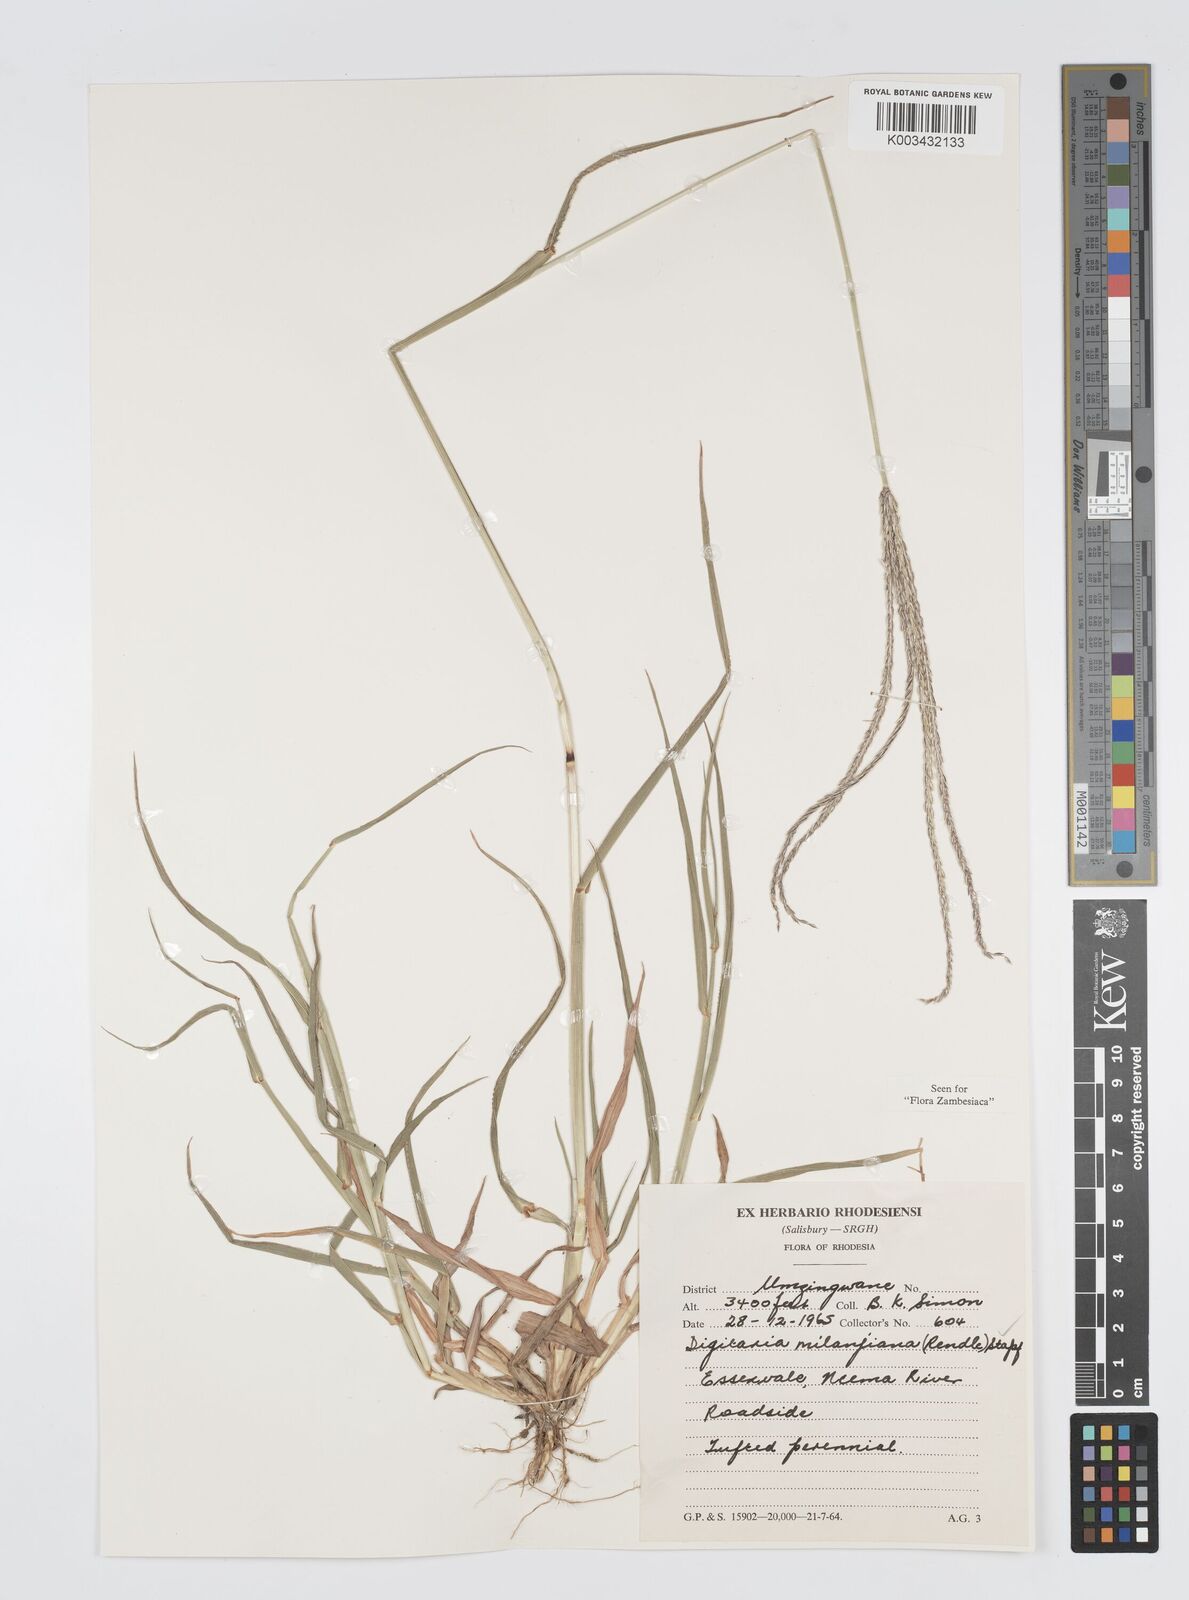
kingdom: Plantae
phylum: Tracheophyta
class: Liliopsida
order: Poales
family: Poaceae
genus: Digitaria
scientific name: Digitaria milanjiana
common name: Madagascar crabgrass
